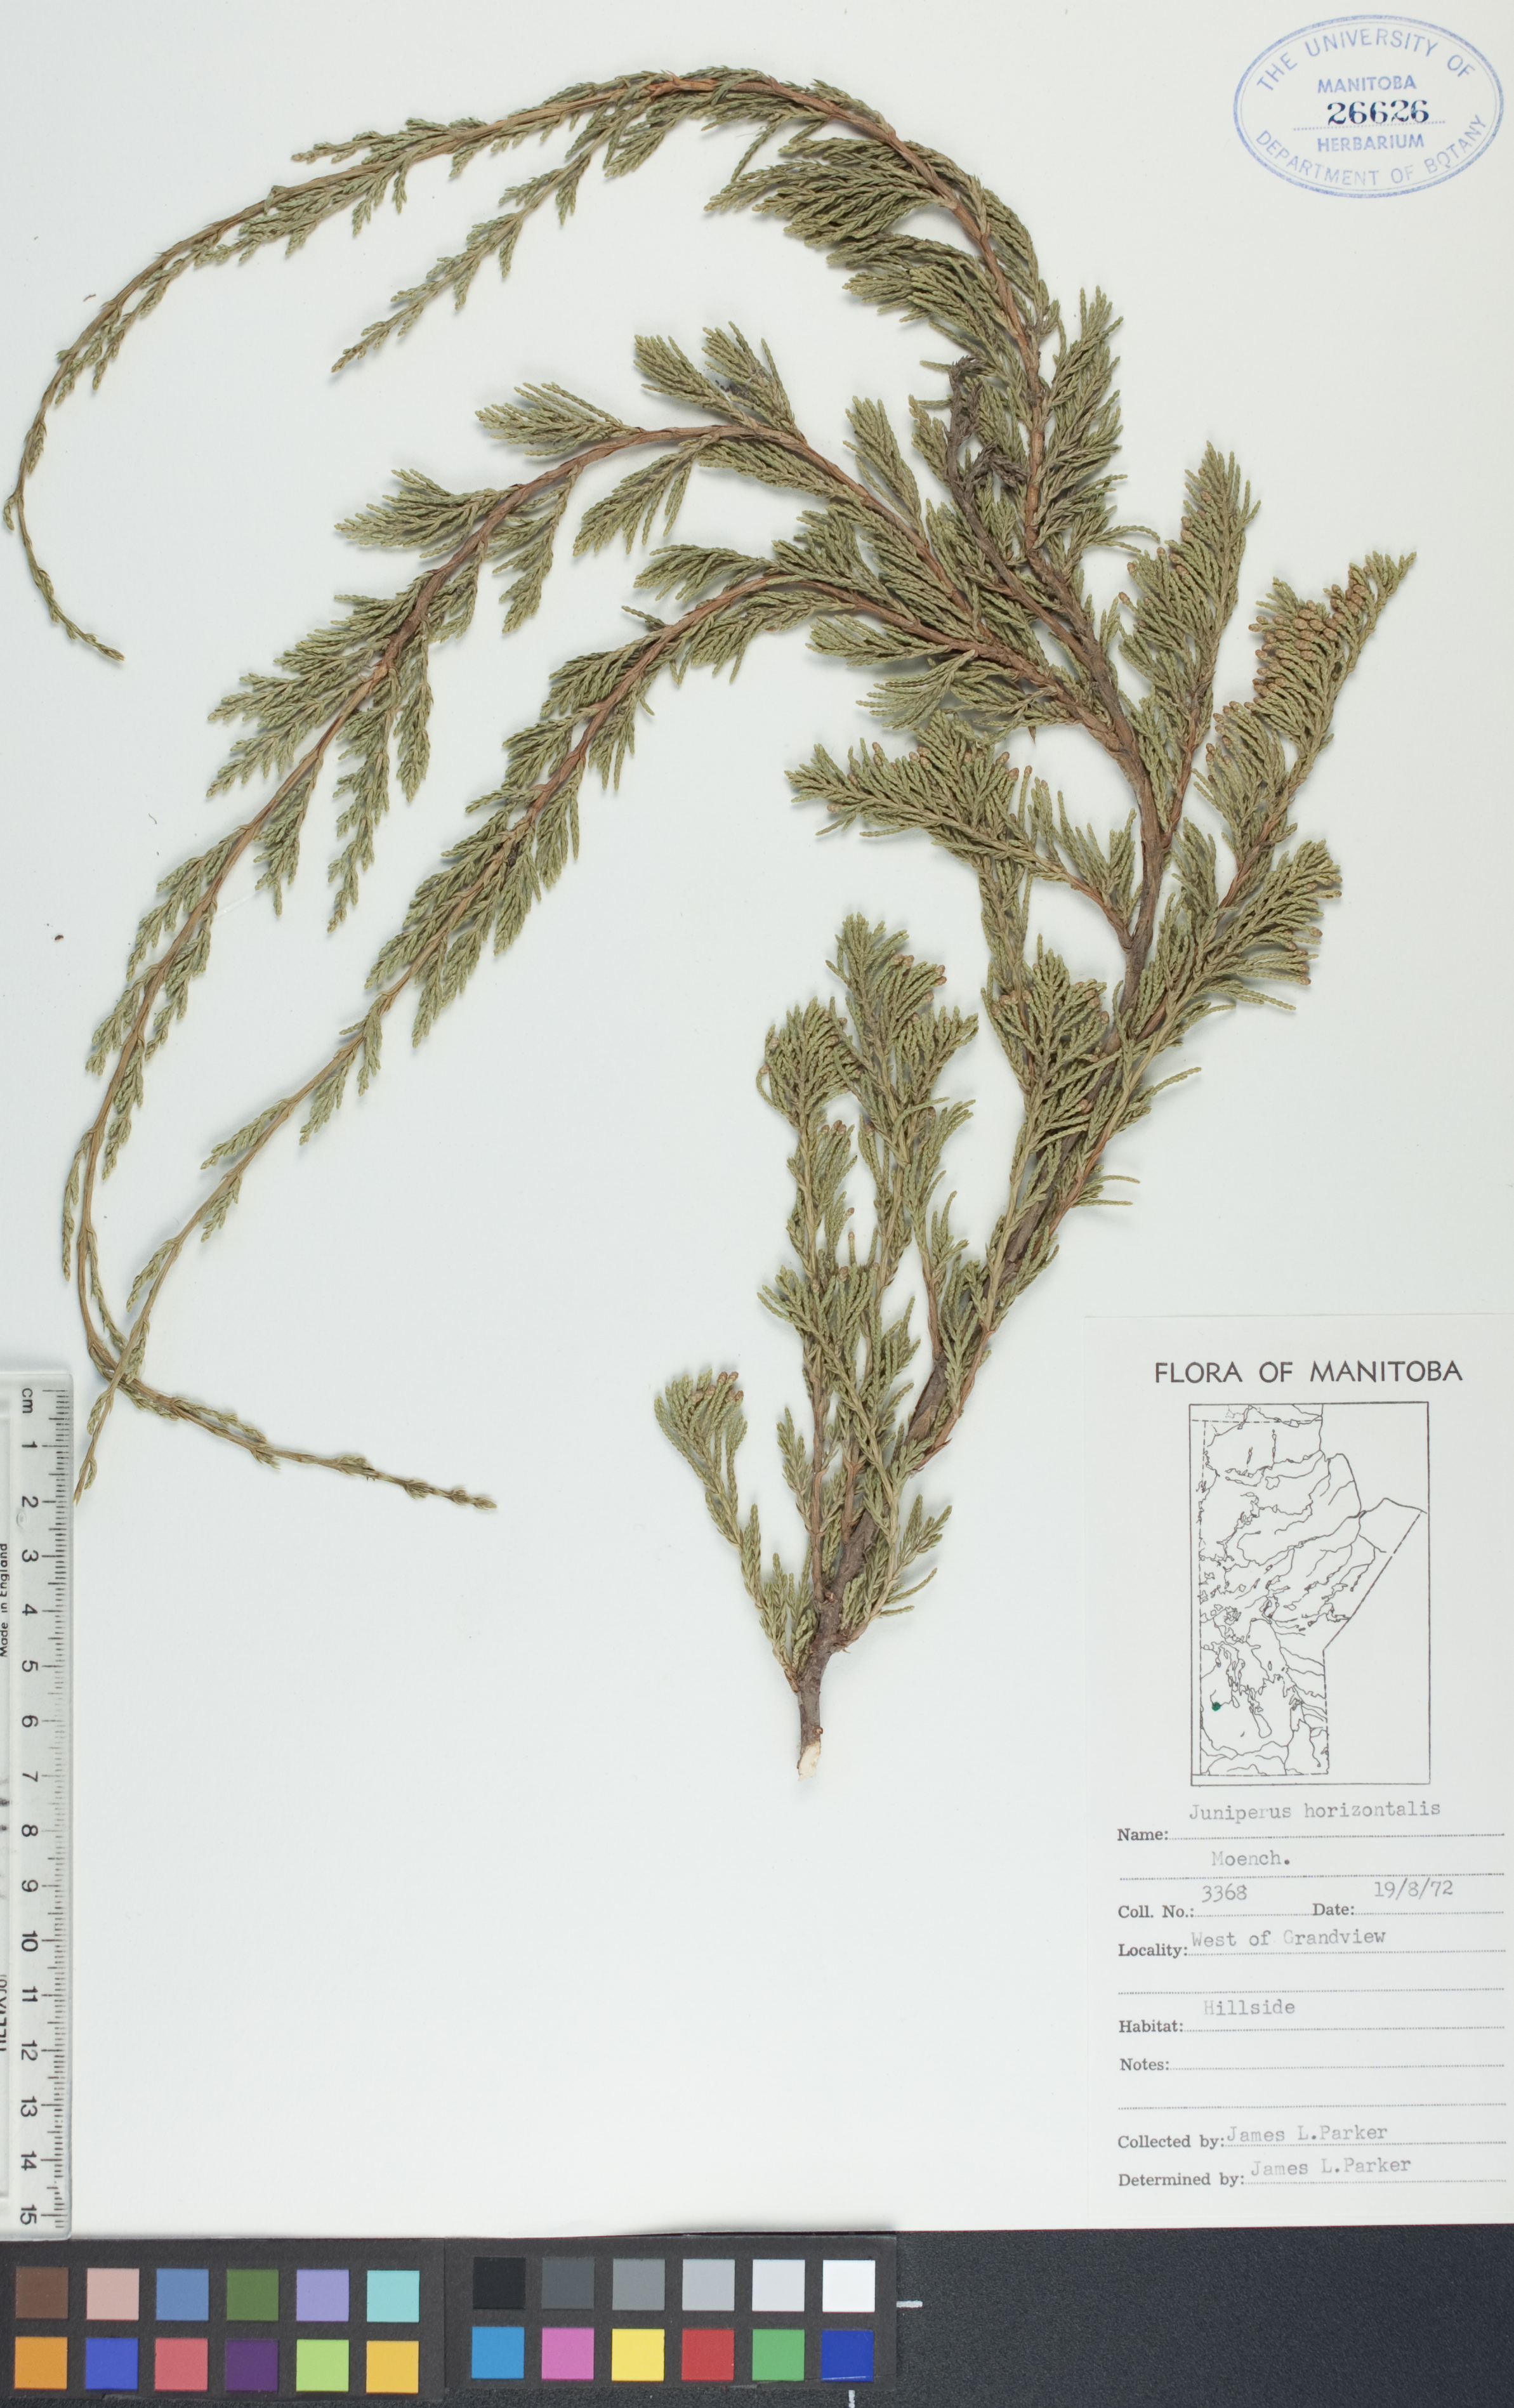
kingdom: Plantae
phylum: Tracheophyta
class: Pinopsida
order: Pinales
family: Cupressaceae
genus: Juniperus
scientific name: Juniperus horizontalis
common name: Creeping juniper
